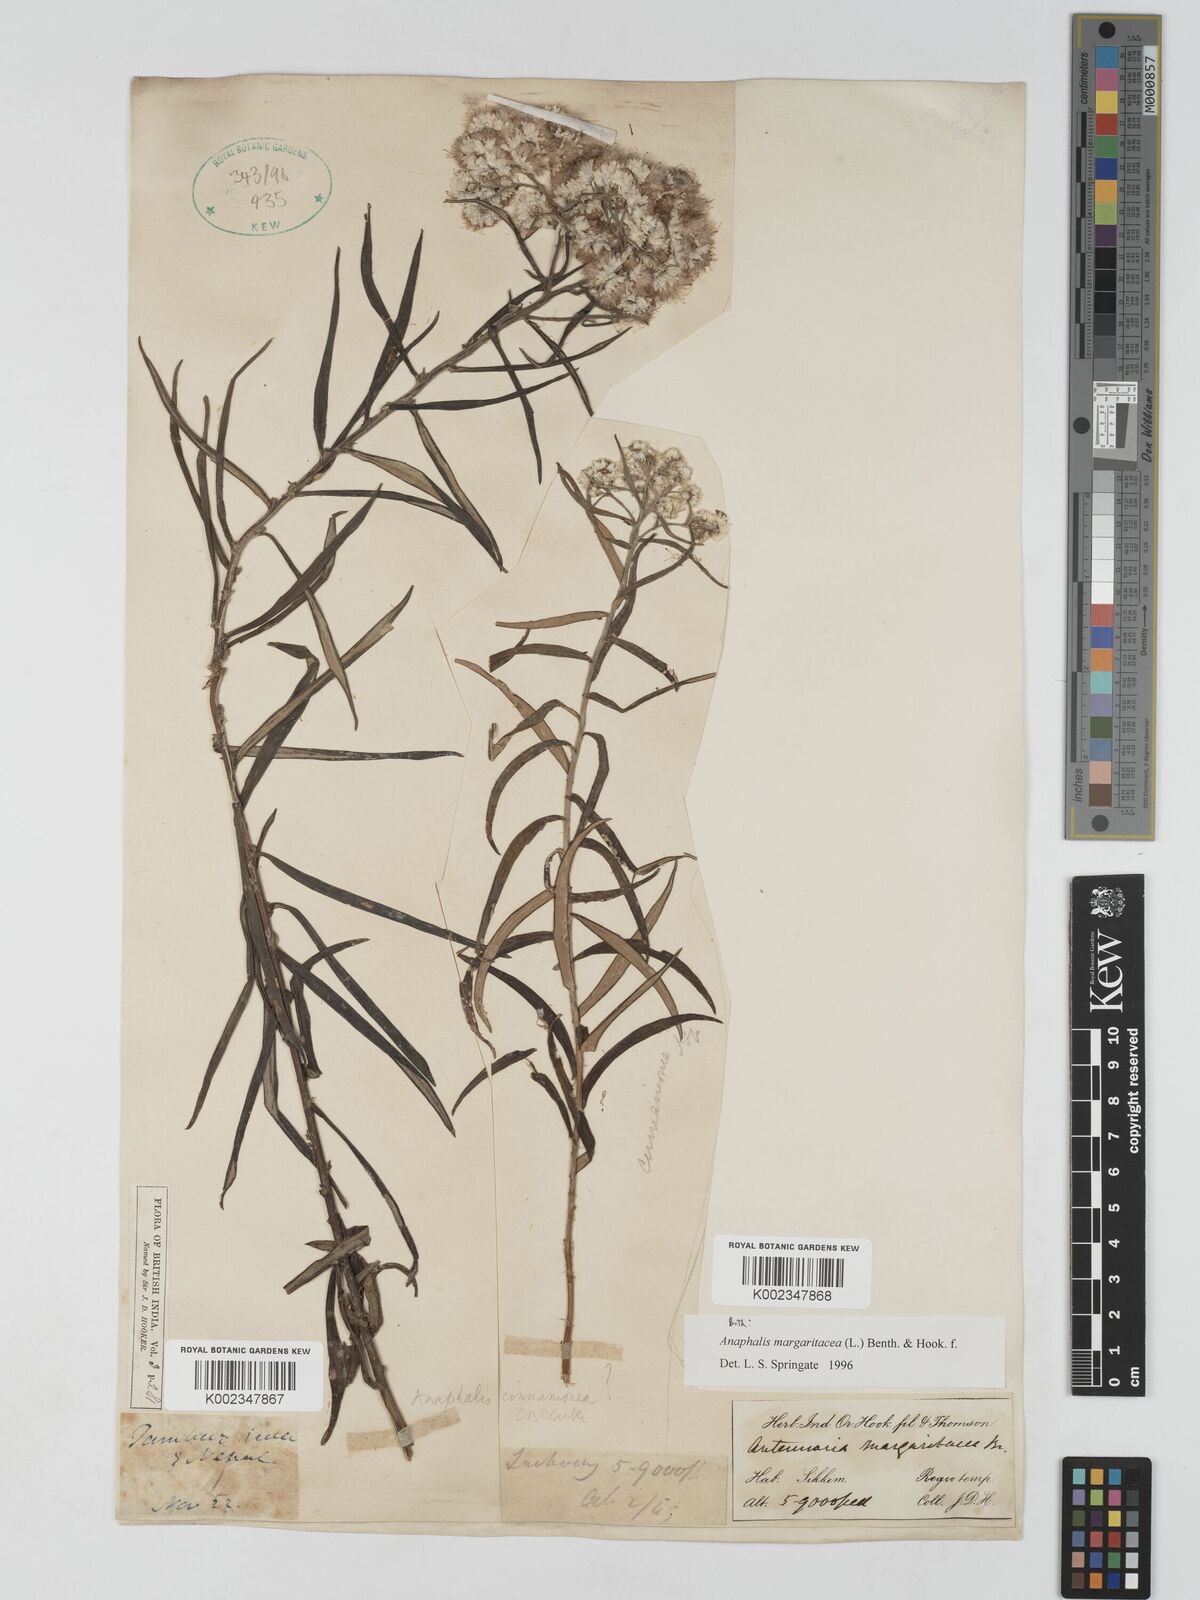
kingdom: Plantae
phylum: Tracheophyta
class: Magnoliopsida
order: Asterales
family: Asteraceae
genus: Anaphalis
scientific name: Anaphalis margaritacea
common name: Pearly everlasting
